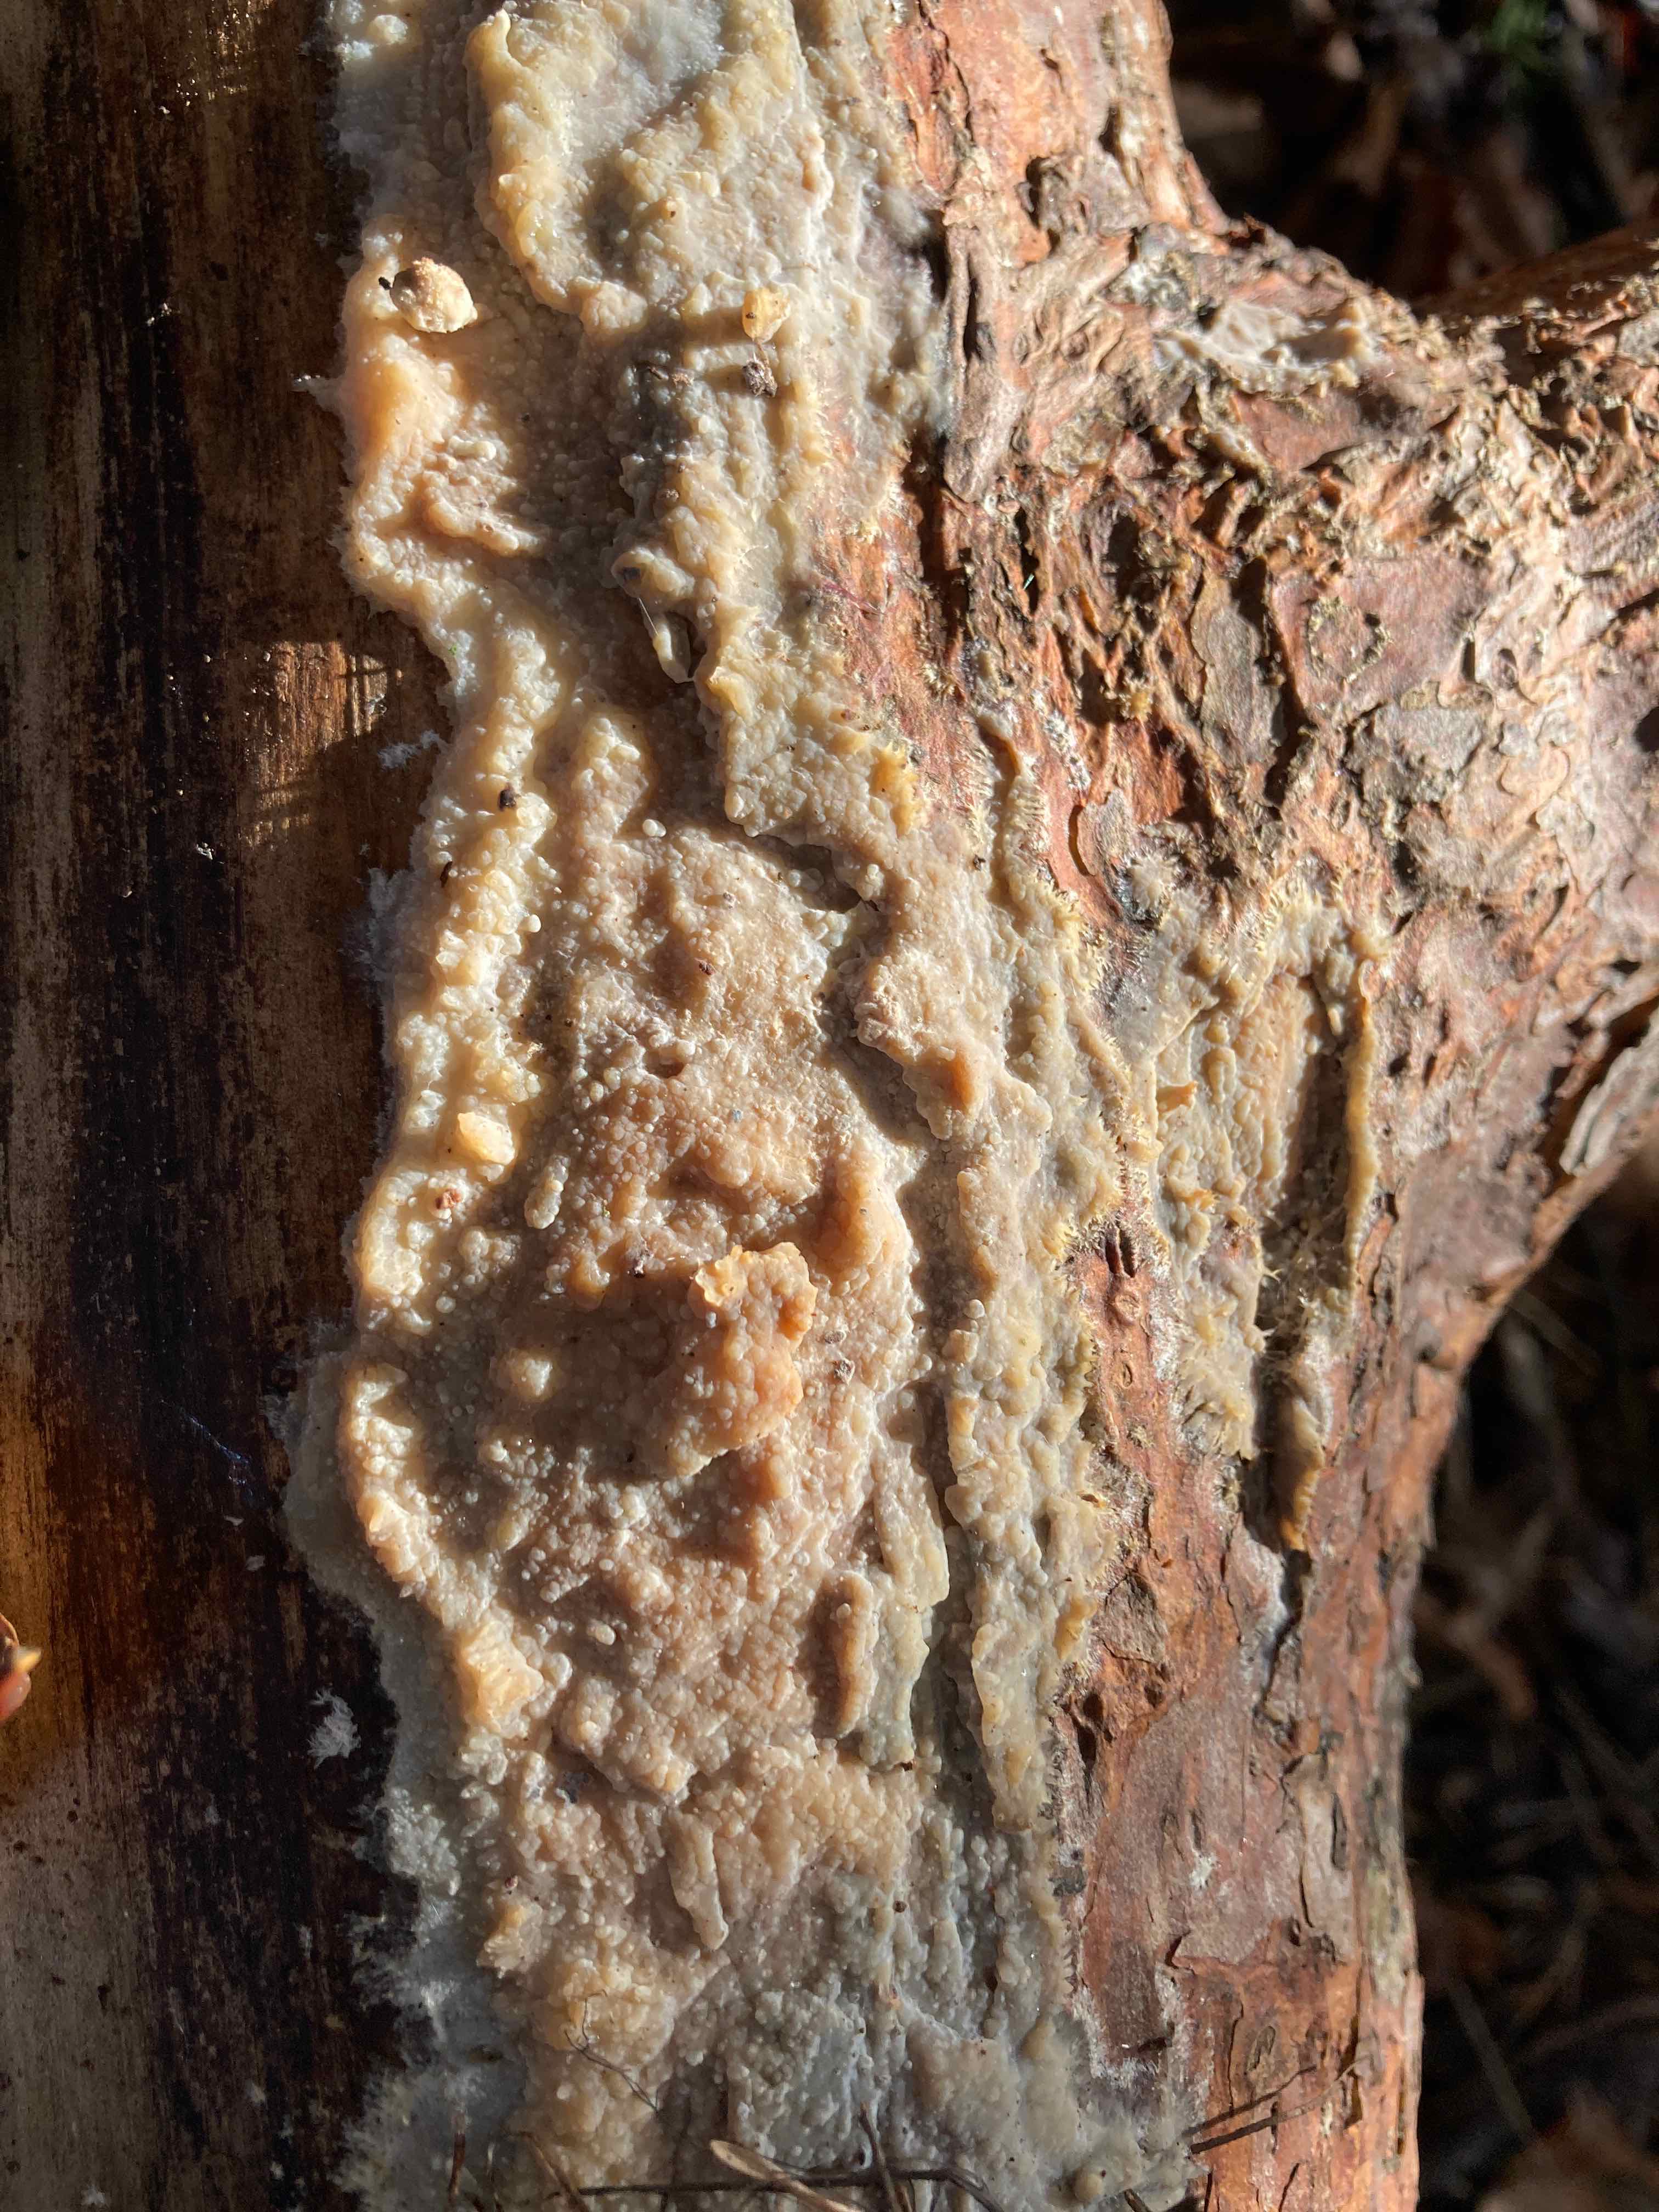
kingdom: Fungi
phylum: Basidiomycota
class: Agaricomycetes
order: Polyporales
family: Phanerochaetaceae
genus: Phlebiopsis
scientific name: Phlebiopsis gigantea
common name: kæmpebarksvamp
